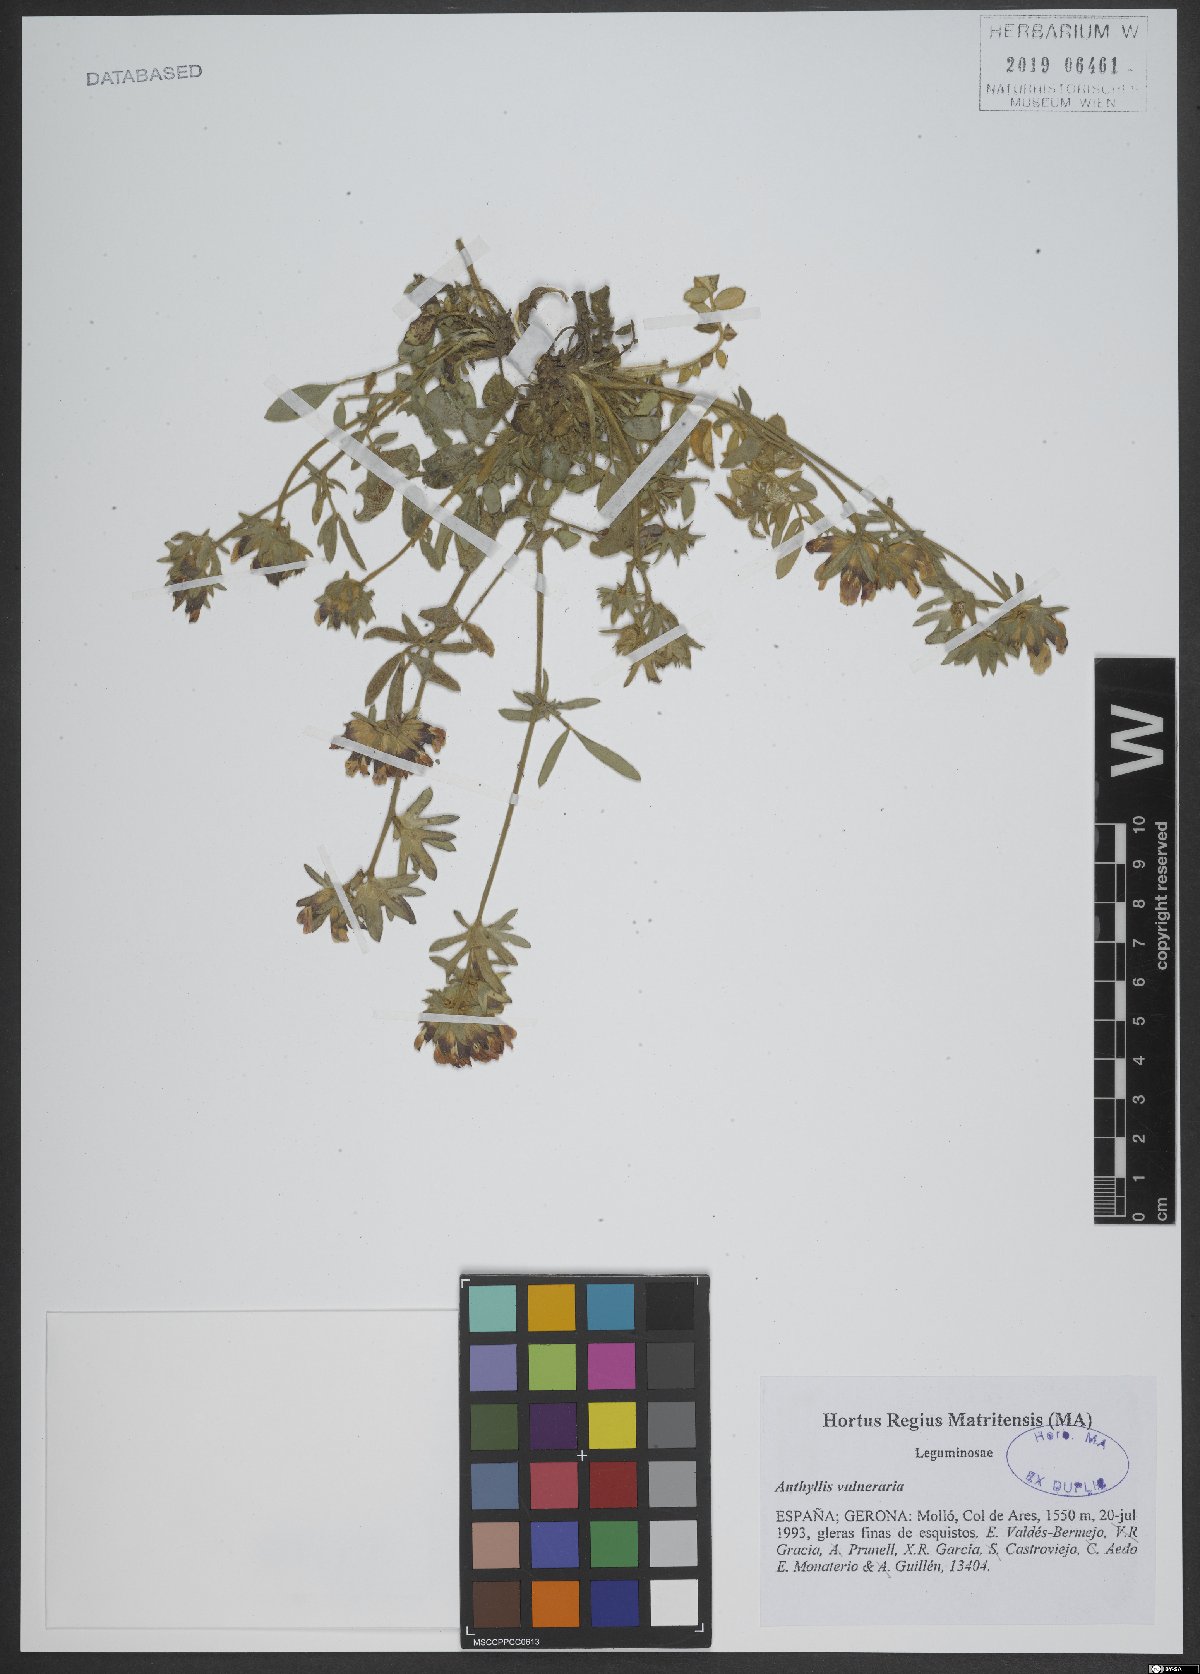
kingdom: Plantae
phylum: Tracheophyta
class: Magnoliopsida
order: Fabales
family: Fabaceae
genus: Anthyllis
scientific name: Anthyllis vulneraria
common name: Kidney vetch
